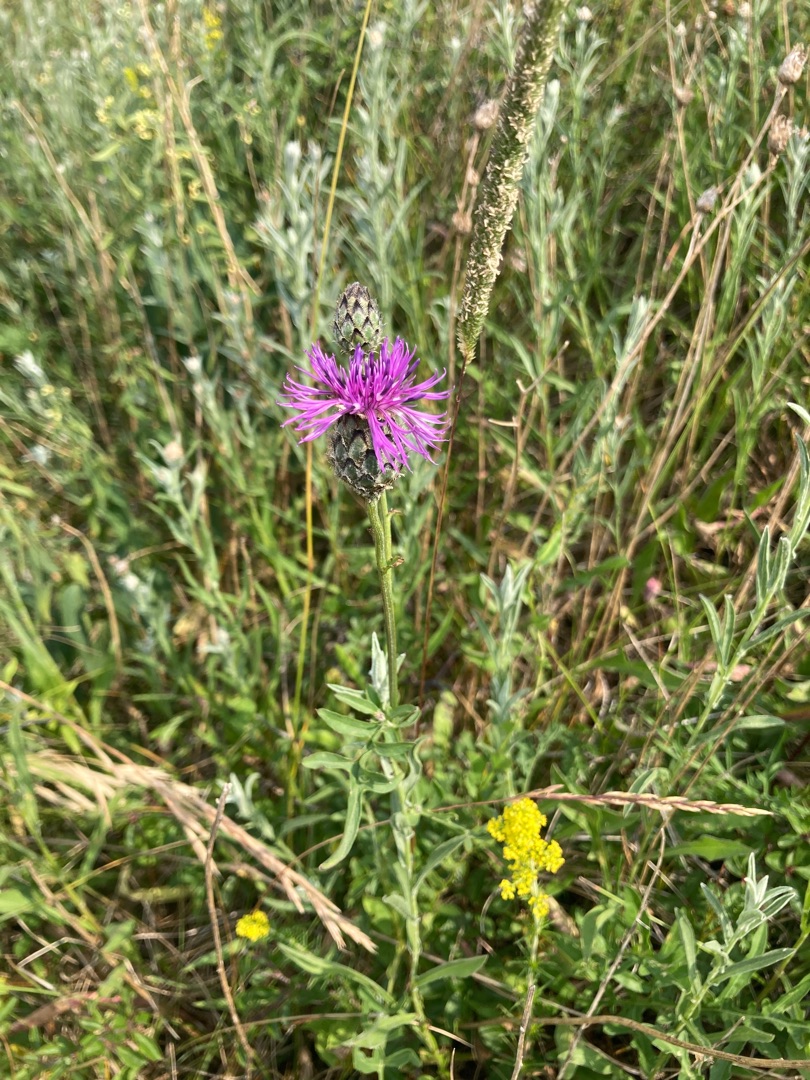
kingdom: Plantae
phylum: Tracheophyta
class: Magnoliopsida
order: Asterales
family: Asteraceae
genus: Centaurea
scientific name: Centaurea scabiosa
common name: Stor knopurt
